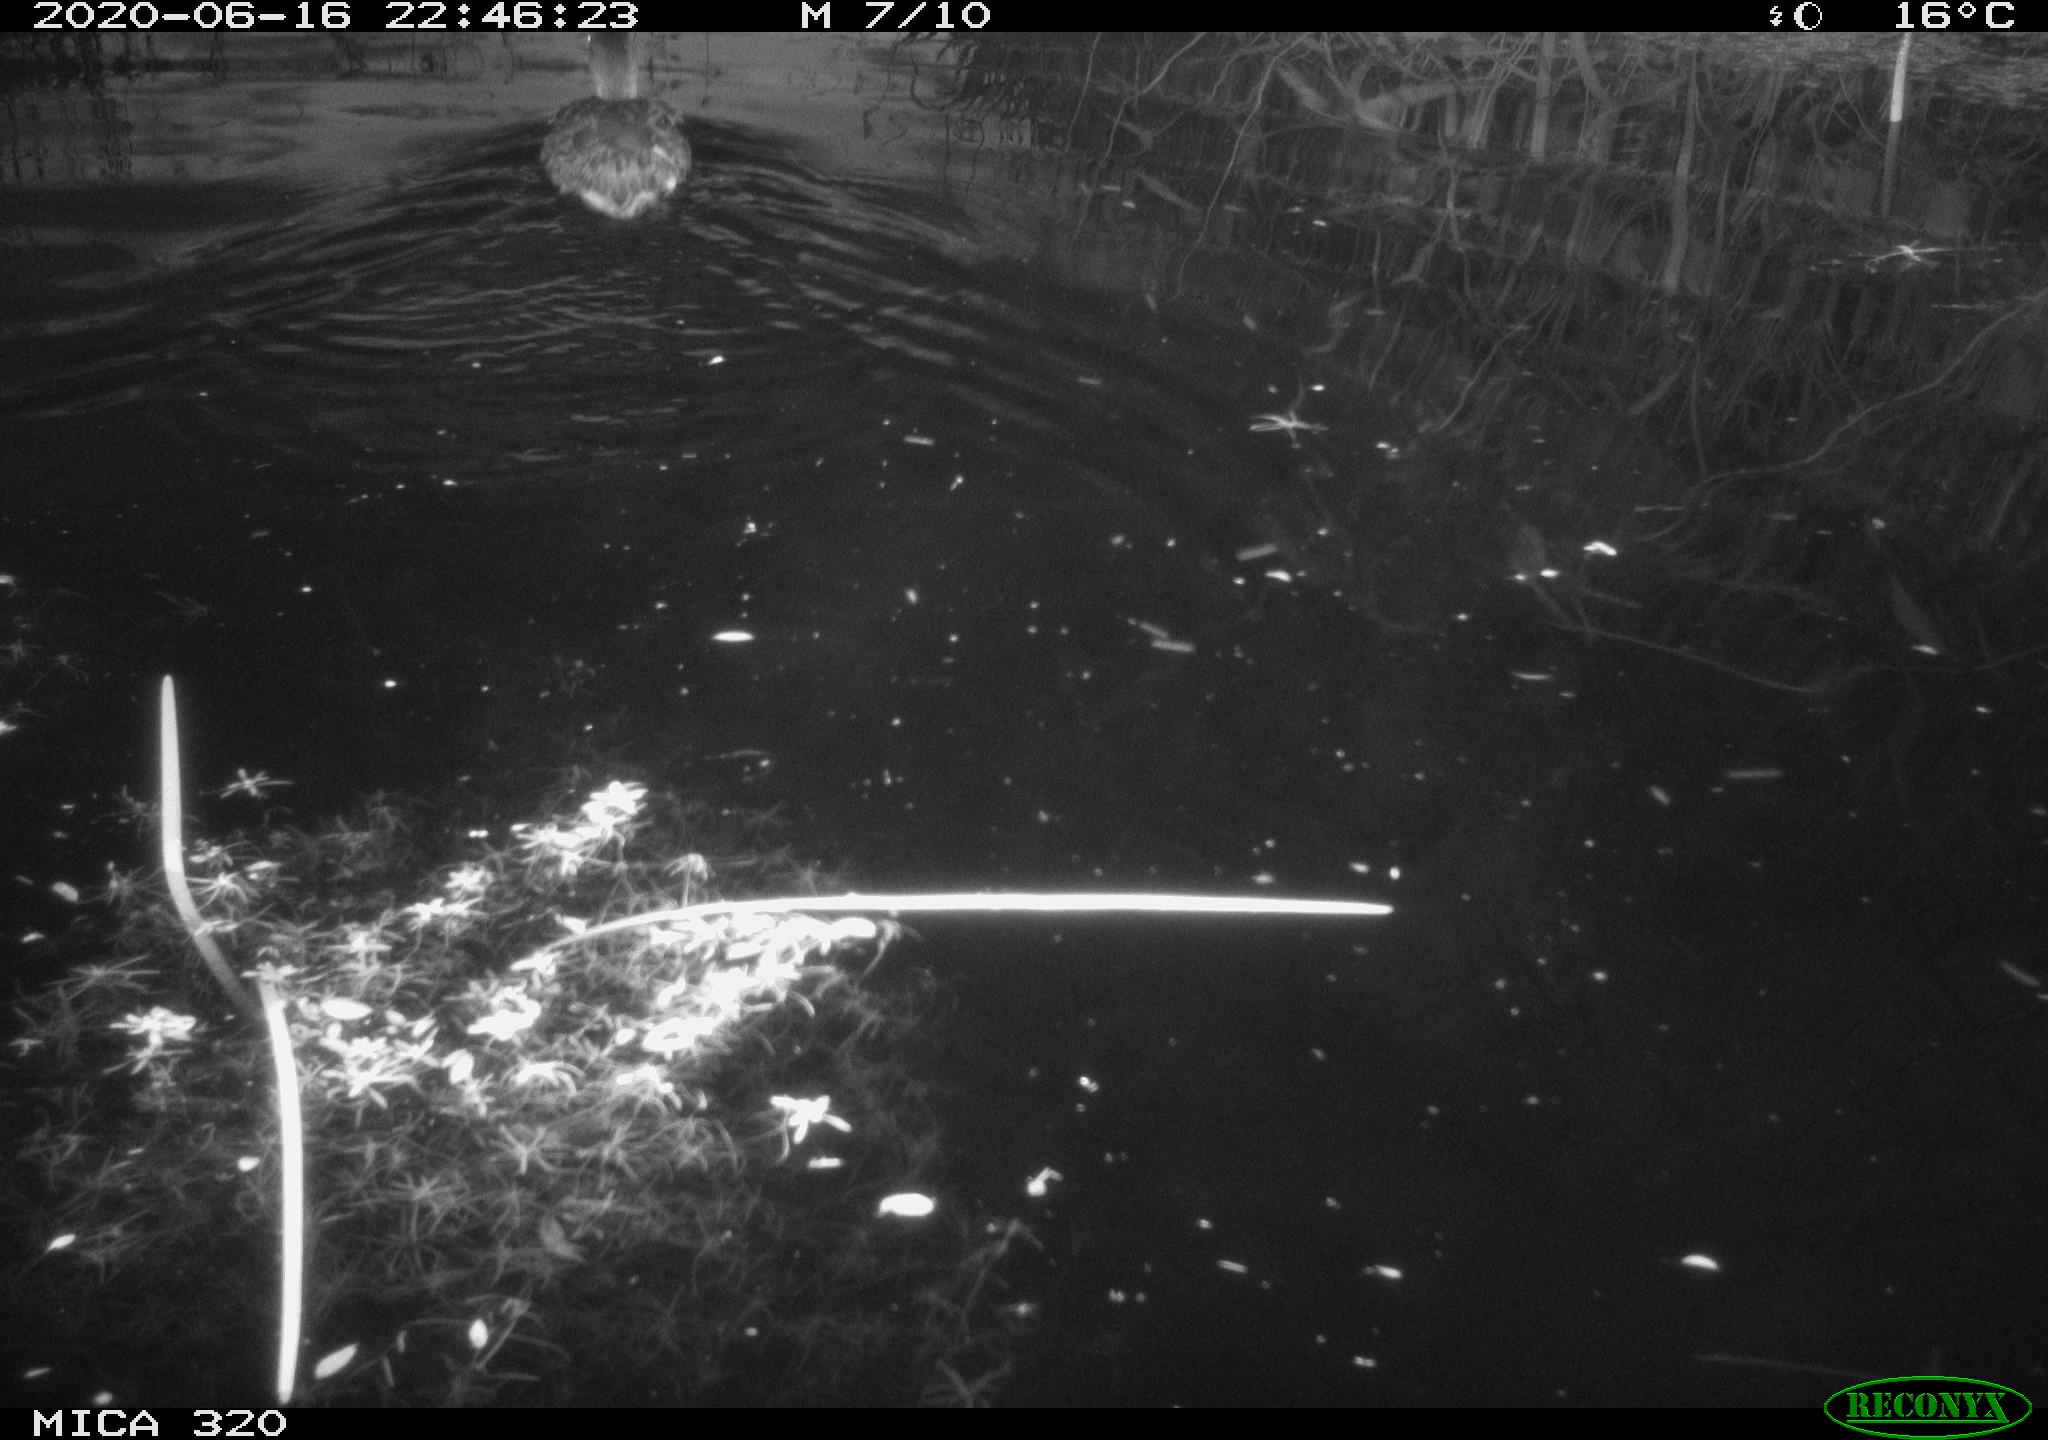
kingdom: Animalia
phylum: Chordata
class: Aves
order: Anseriformes
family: Anatidae
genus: Anas
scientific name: Anas platyrhynchos
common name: Mallard
